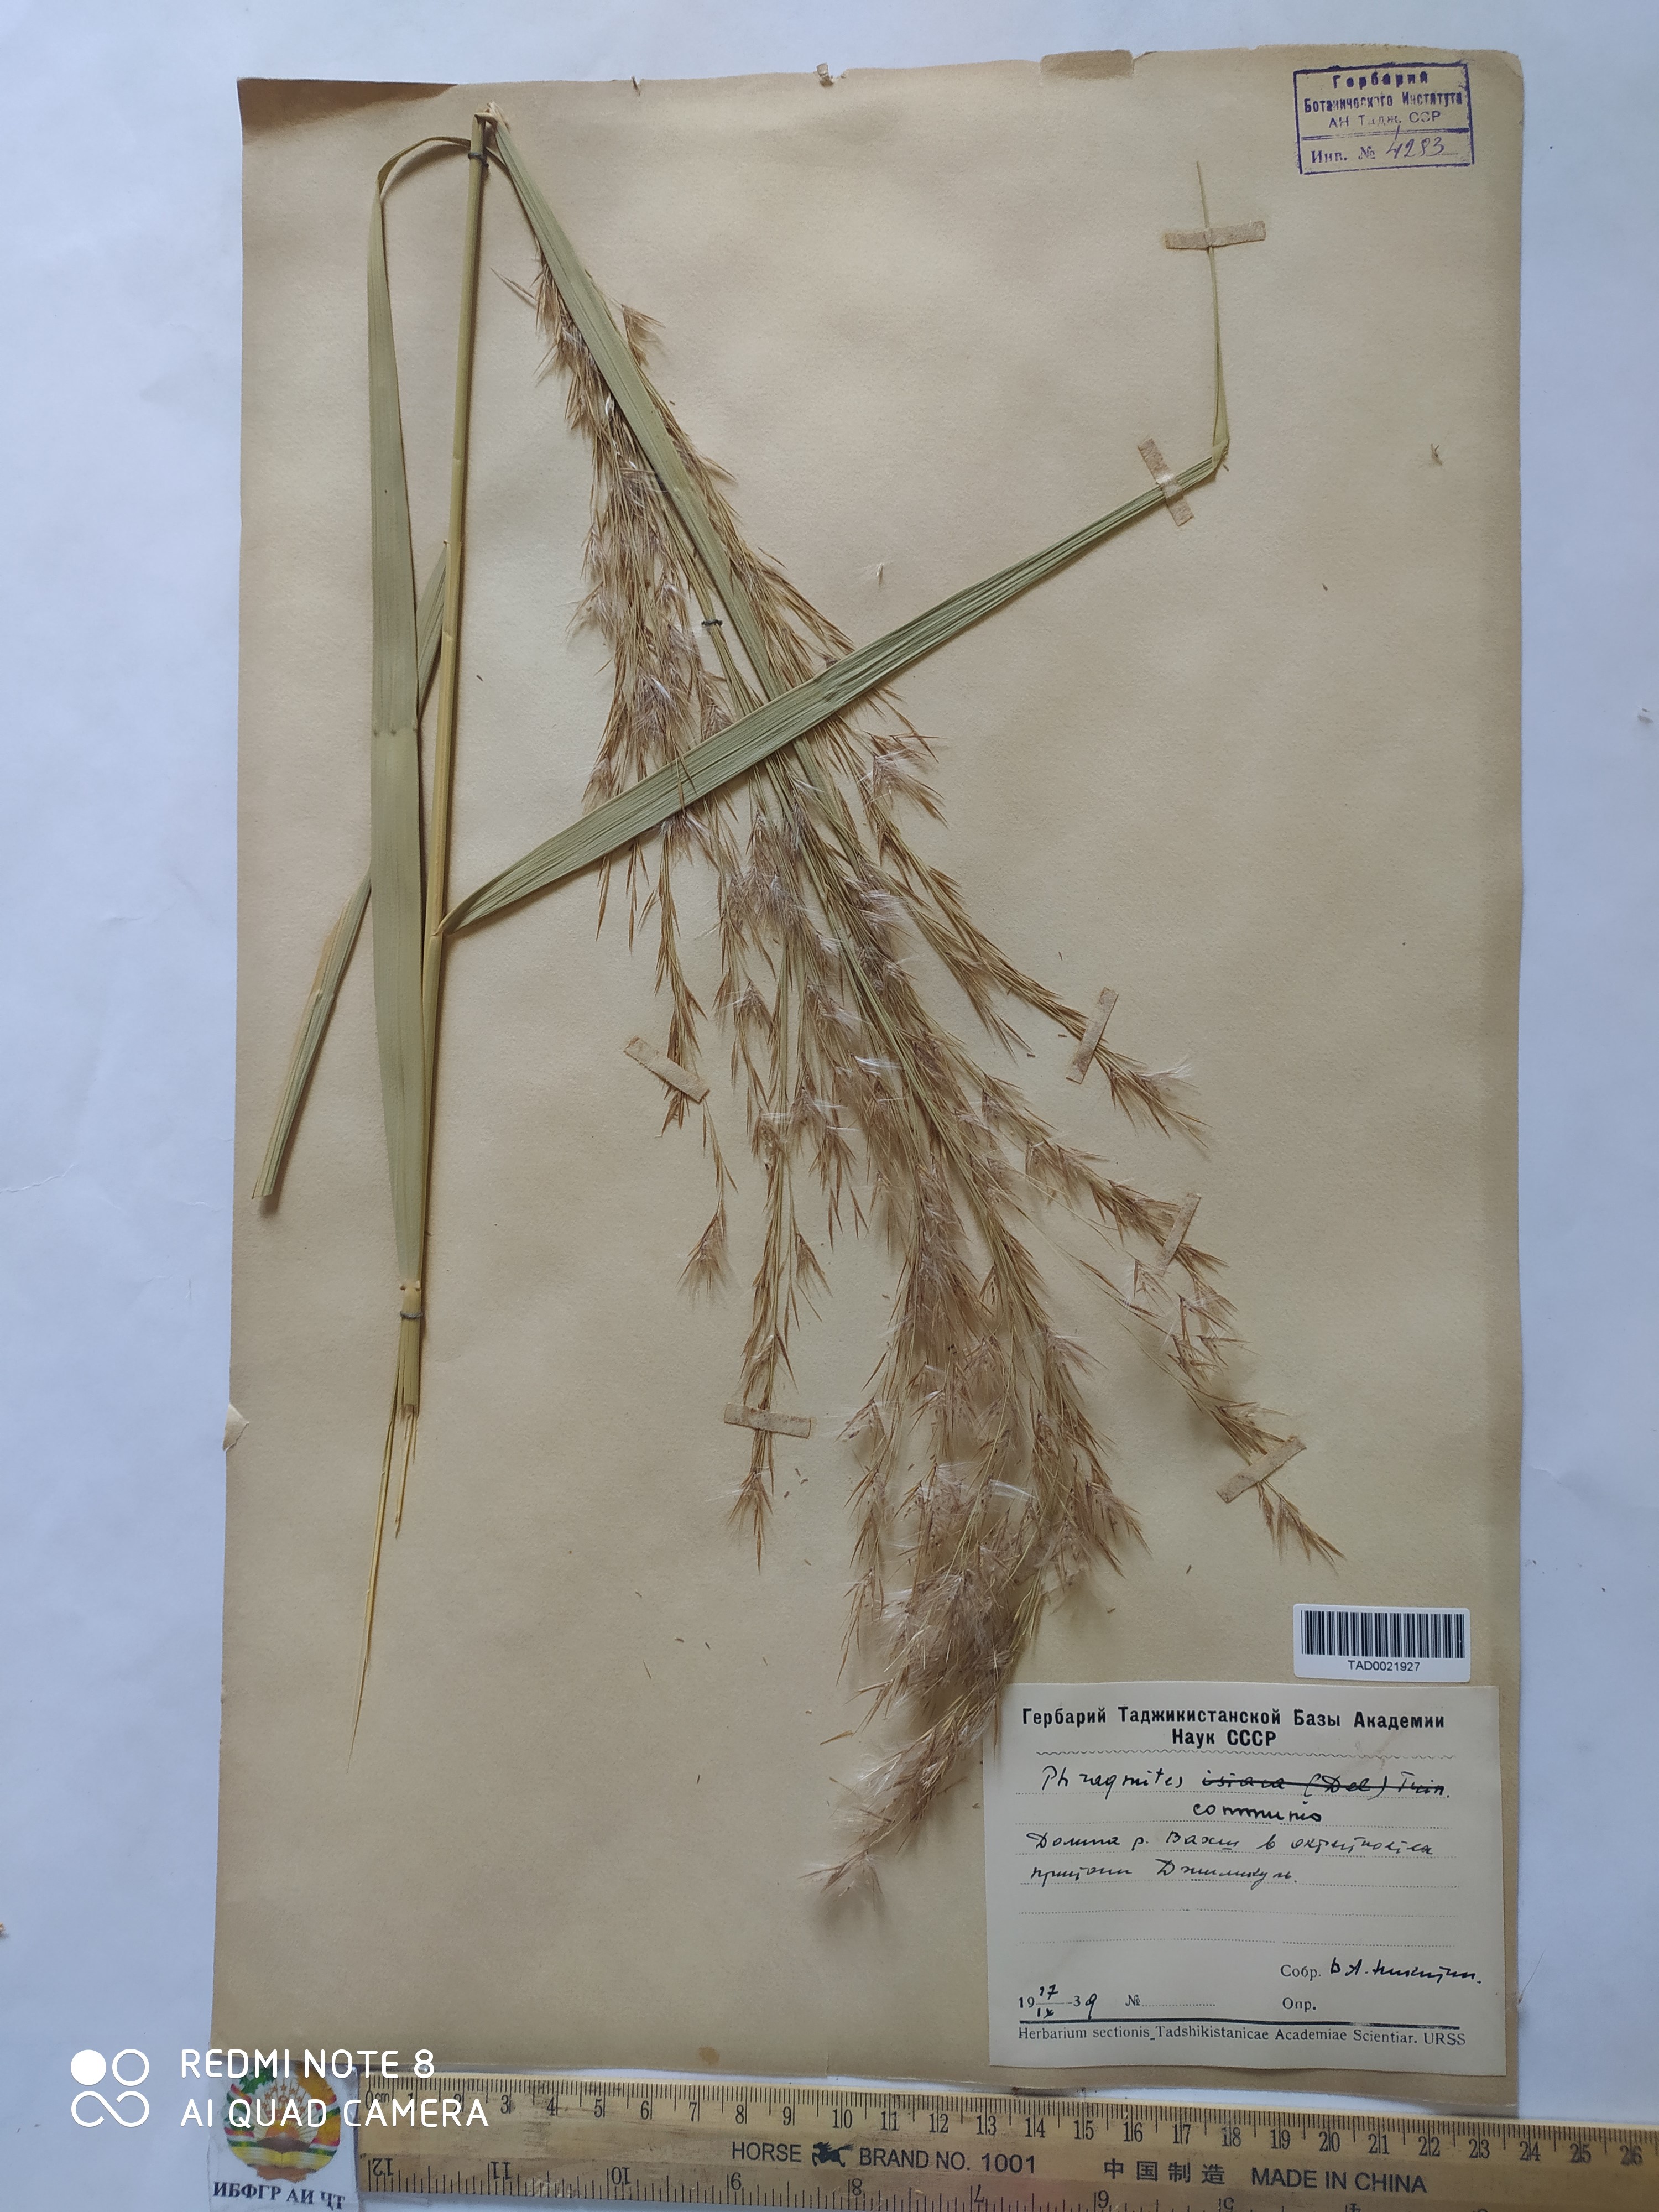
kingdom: Plantae
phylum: Tracheophyta
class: Liliopsida
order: Poales
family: Poaceae
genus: Phragmites
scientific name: Phragmites australis
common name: Common reed
